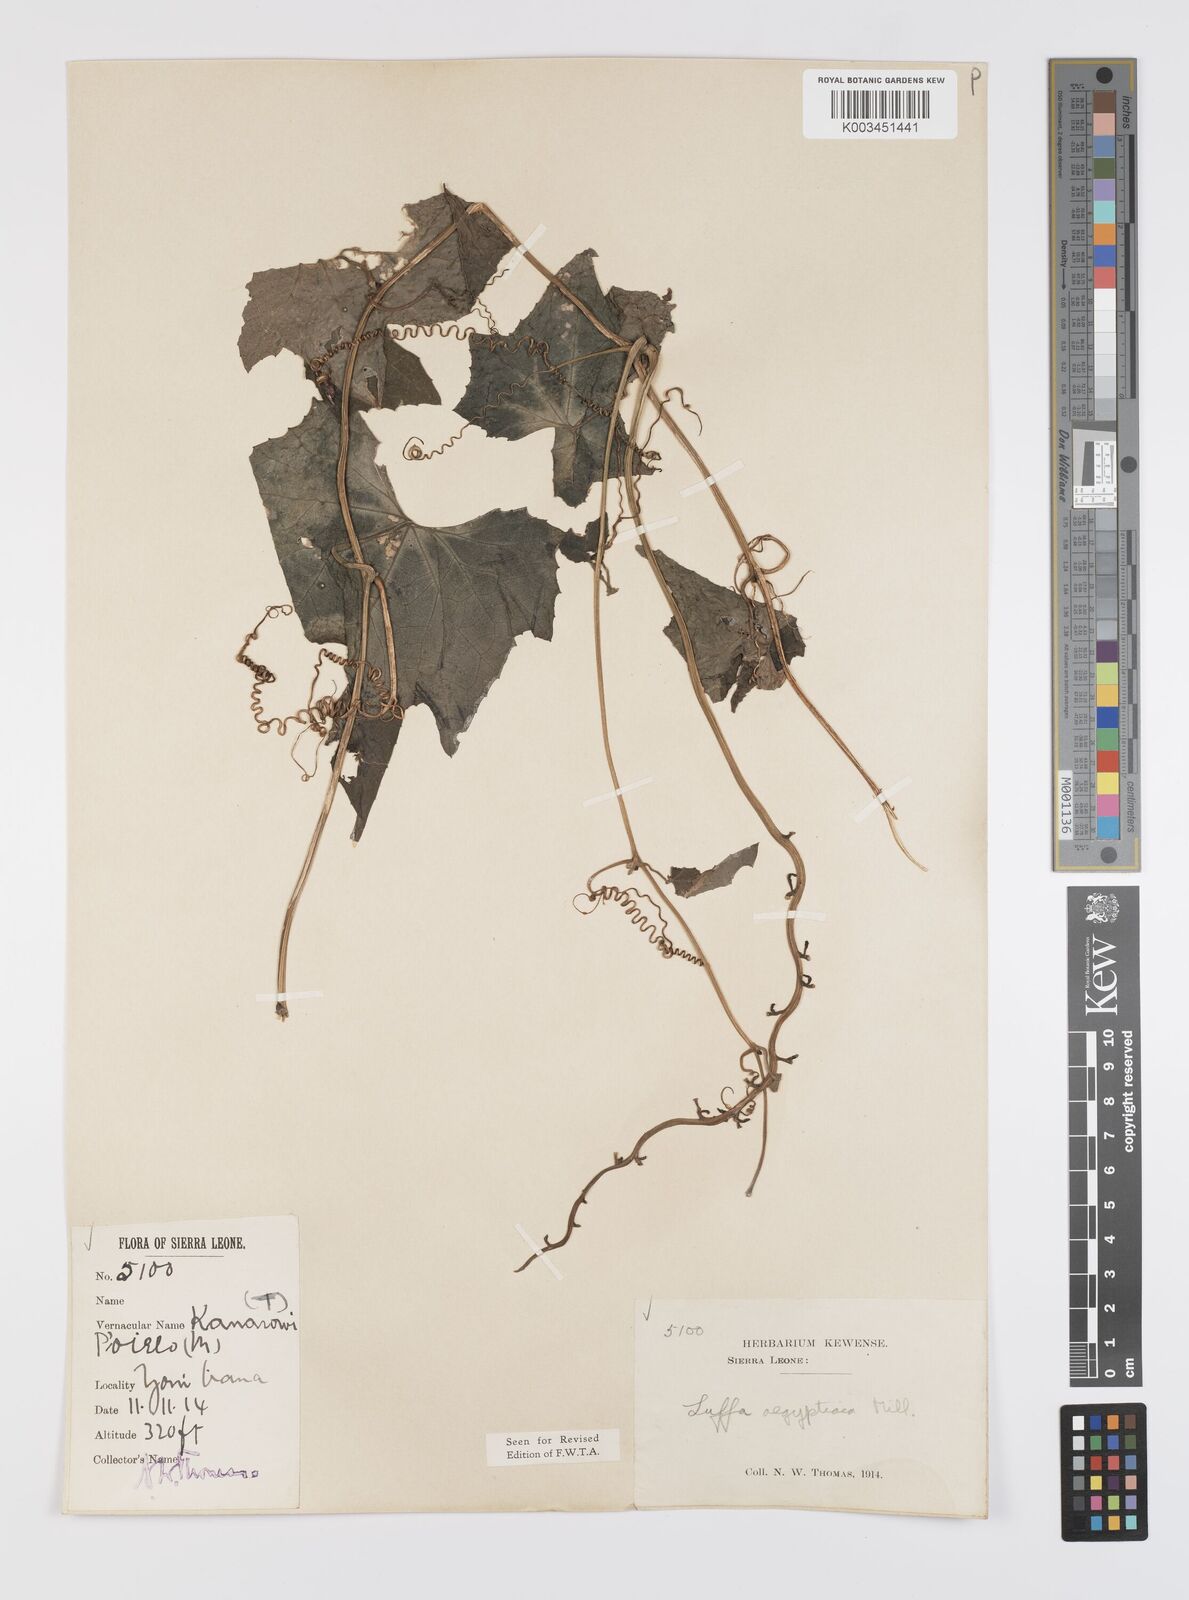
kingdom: Plantae
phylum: Tracheophyta
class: Magnoliopsida
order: Cucurbitales
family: Cucurbitaceae
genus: Luffa
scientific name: Luffa aegyptiaca
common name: Sponge gourd
